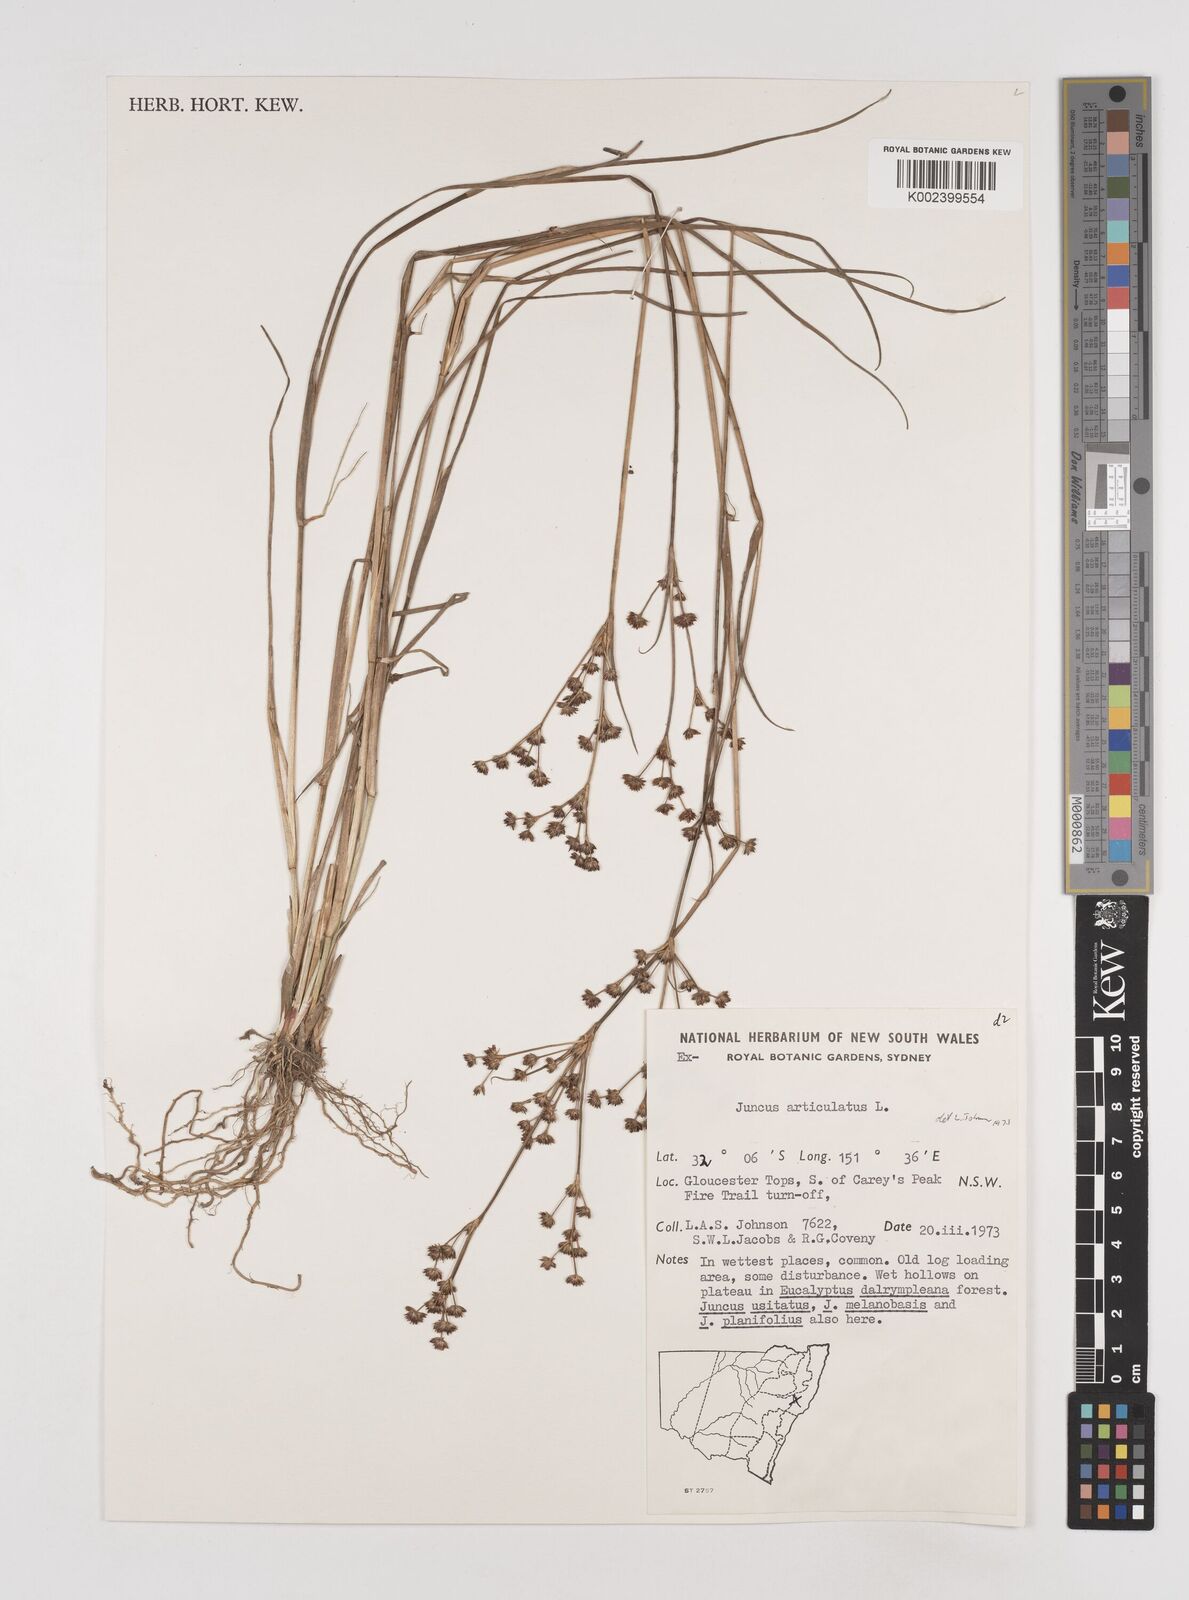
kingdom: Plantae
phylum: Tracheophyta
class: Liliopsida
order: Poales
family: Juncaceae
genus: Juncus
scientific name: Juncus articulatus
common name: Jointed rush
